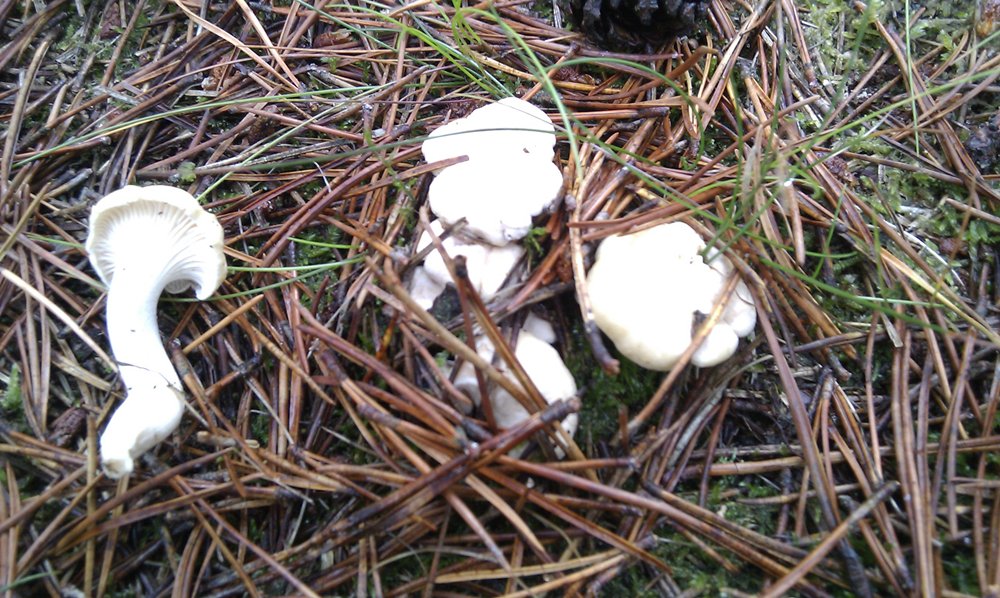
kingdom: Fungi
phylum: Basidiomycota
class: Agaricomycetes
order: Cantharellales
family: Hydnaceae
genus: Cantharellus
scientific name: Cantharellus cibarius
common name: almindelig kantarel
